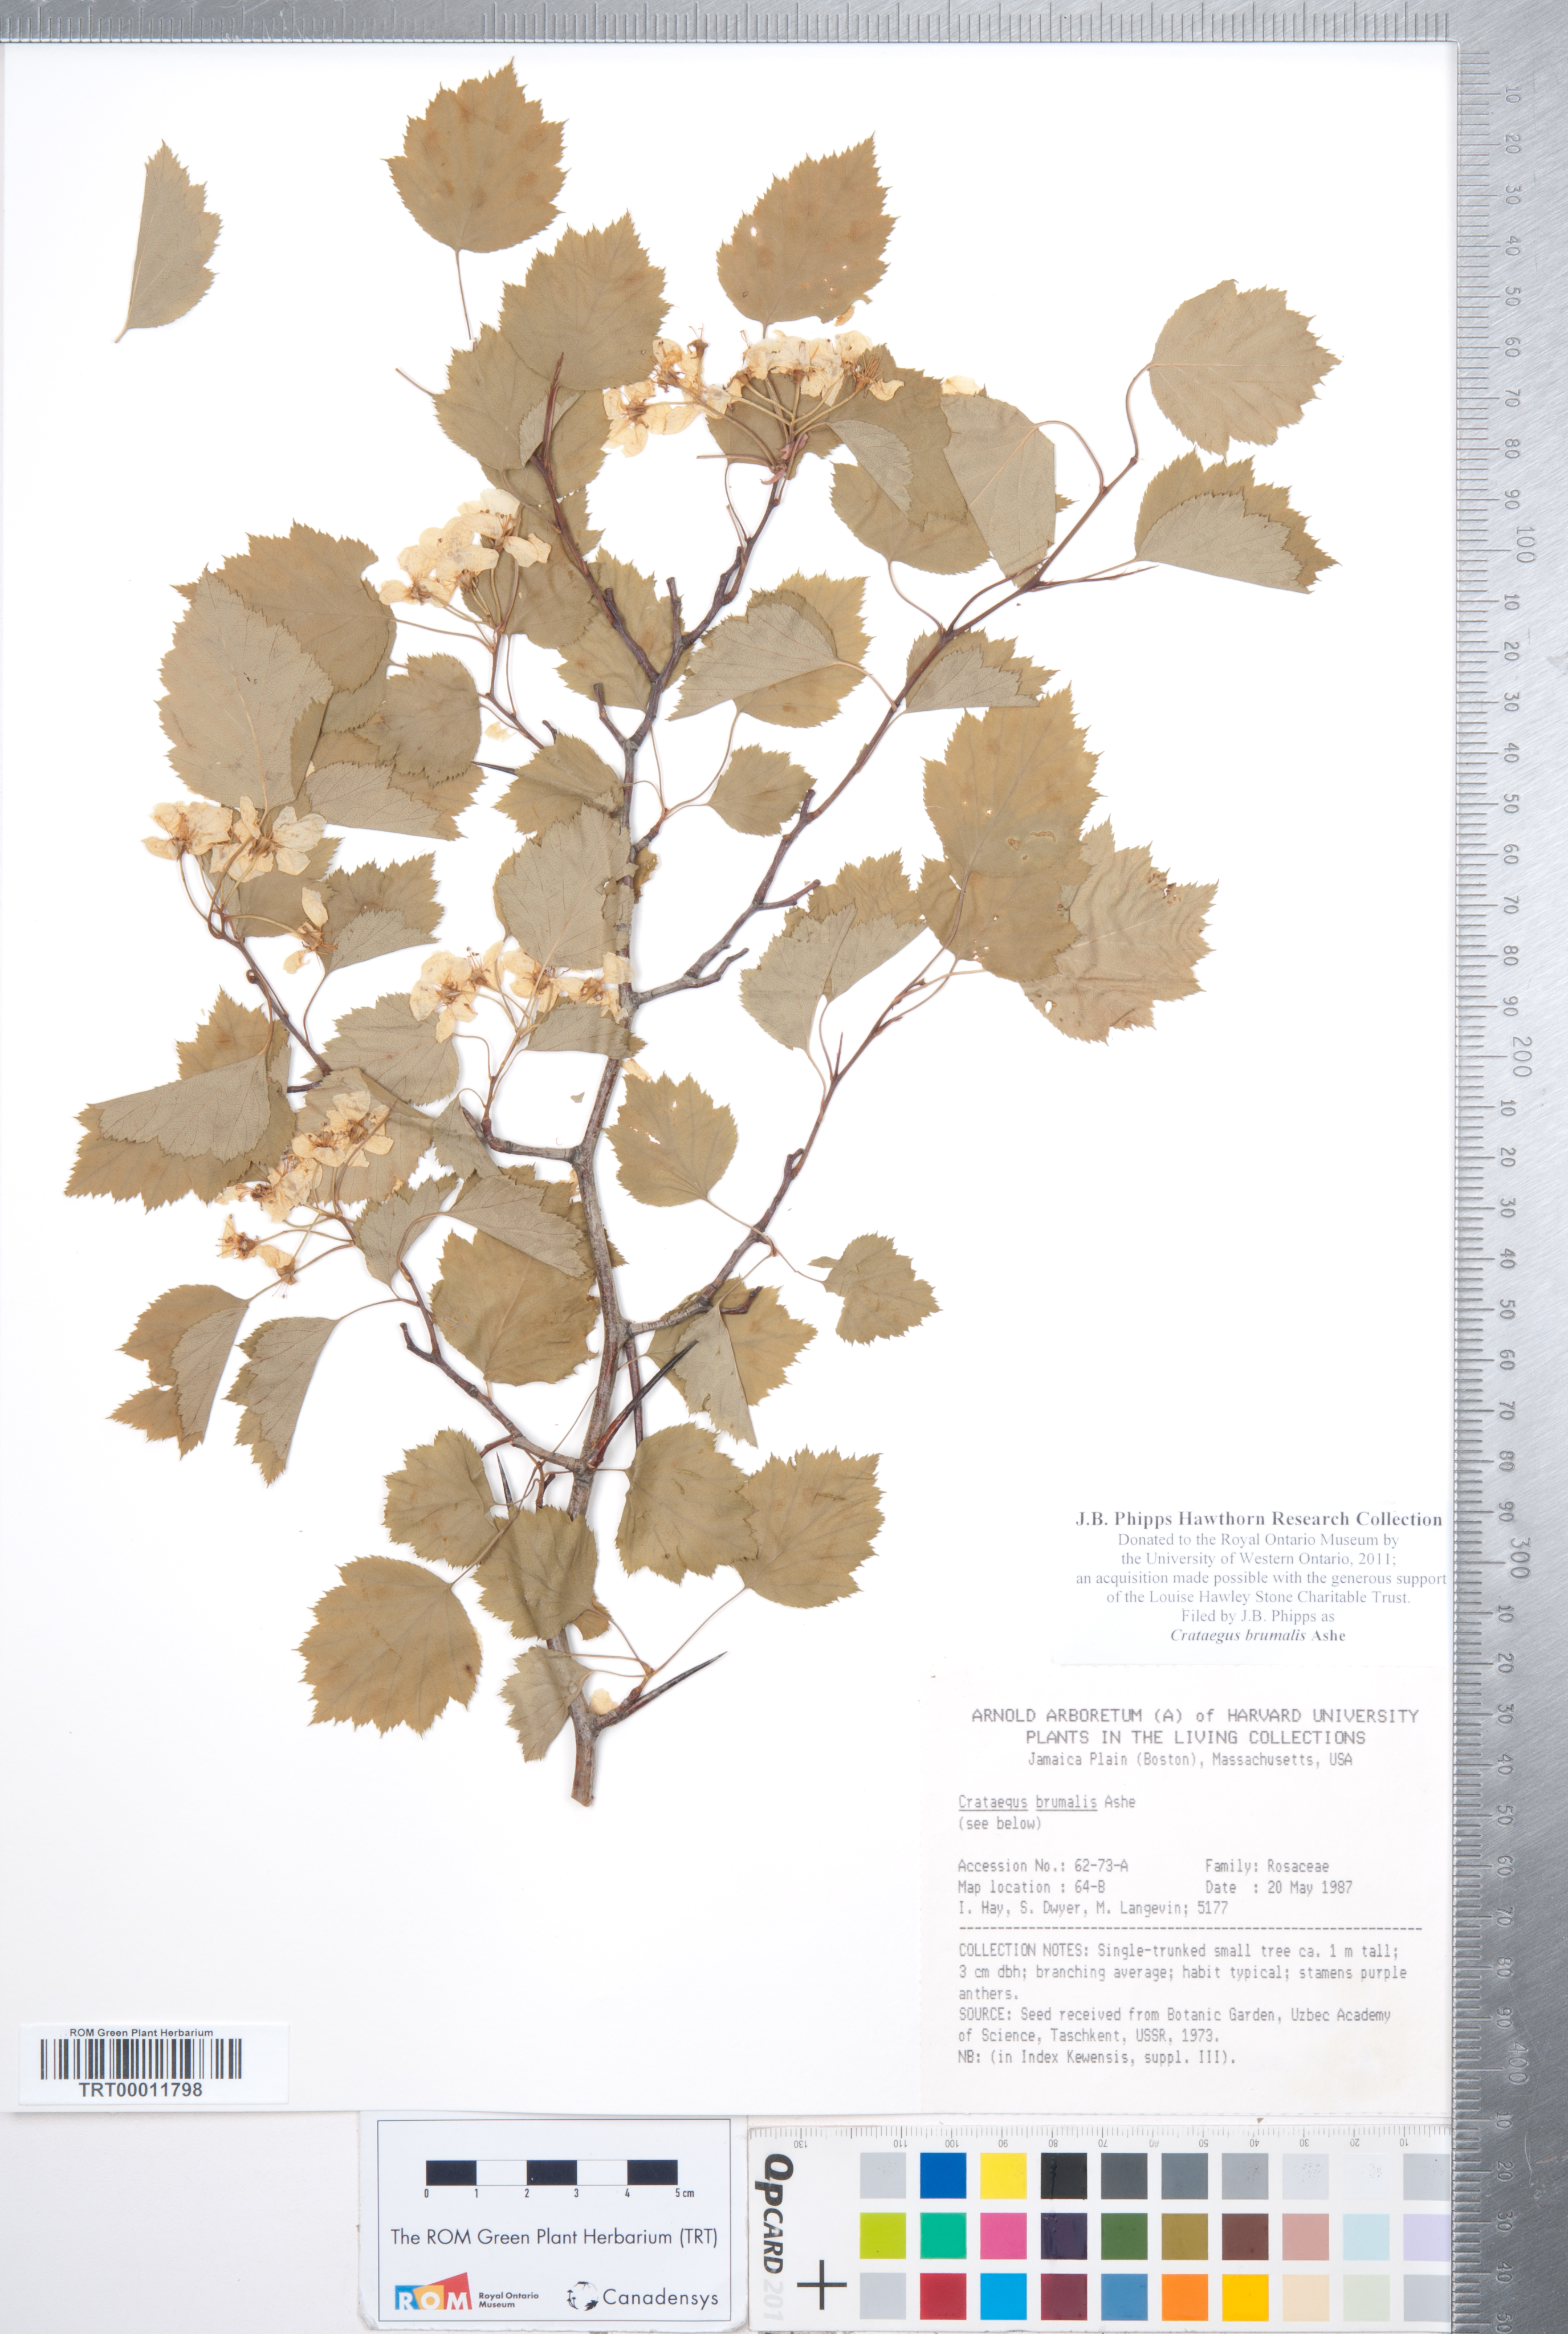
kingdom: Plantae
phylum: Tracheophyta
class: Magnoliopsida
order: Rosales
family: Rosaceae
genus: Crataegus
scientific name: Crataegus macrosperma
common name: Variable hawthorn
